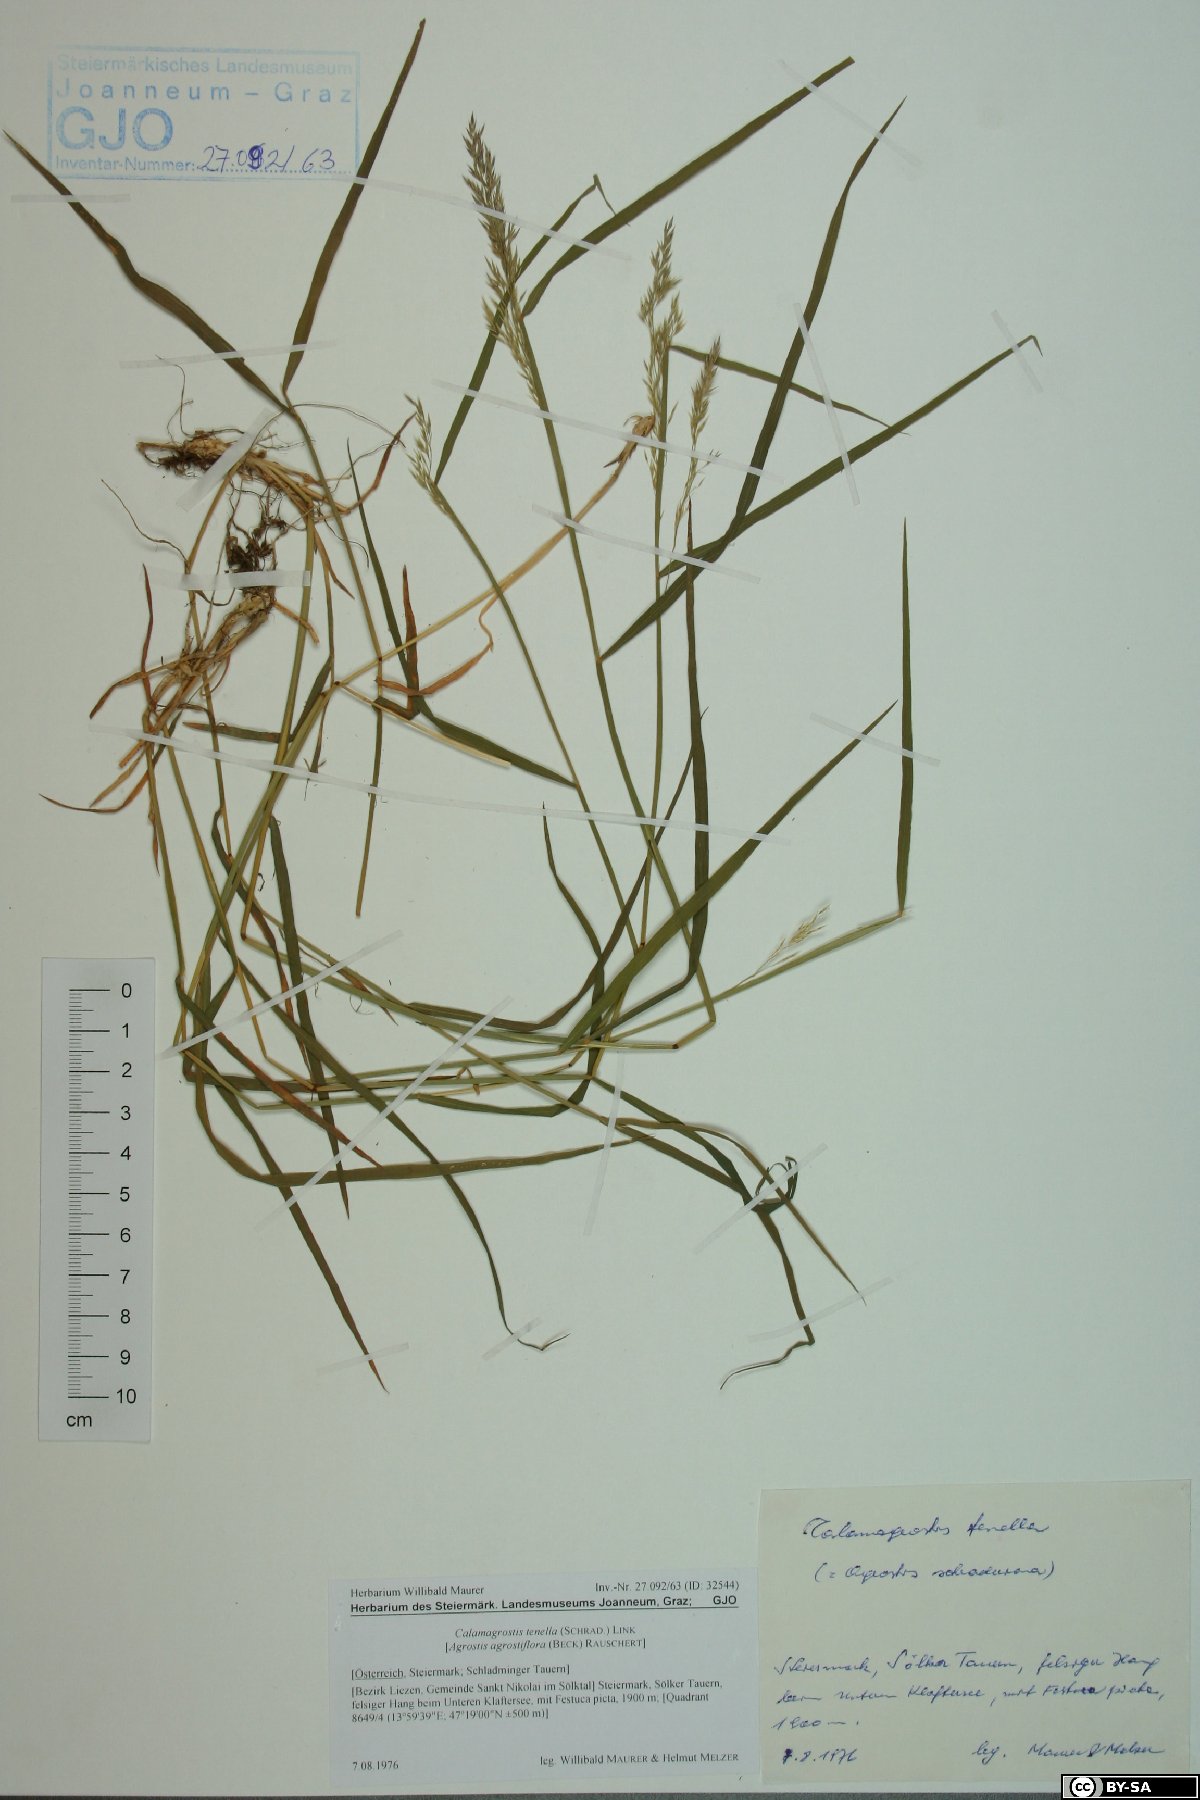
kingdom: Plantae
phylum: Tracheophyta
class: Liliopsida
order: Poales
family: Poaceae
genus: Agrostis
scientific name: Agrostis schraderiana
